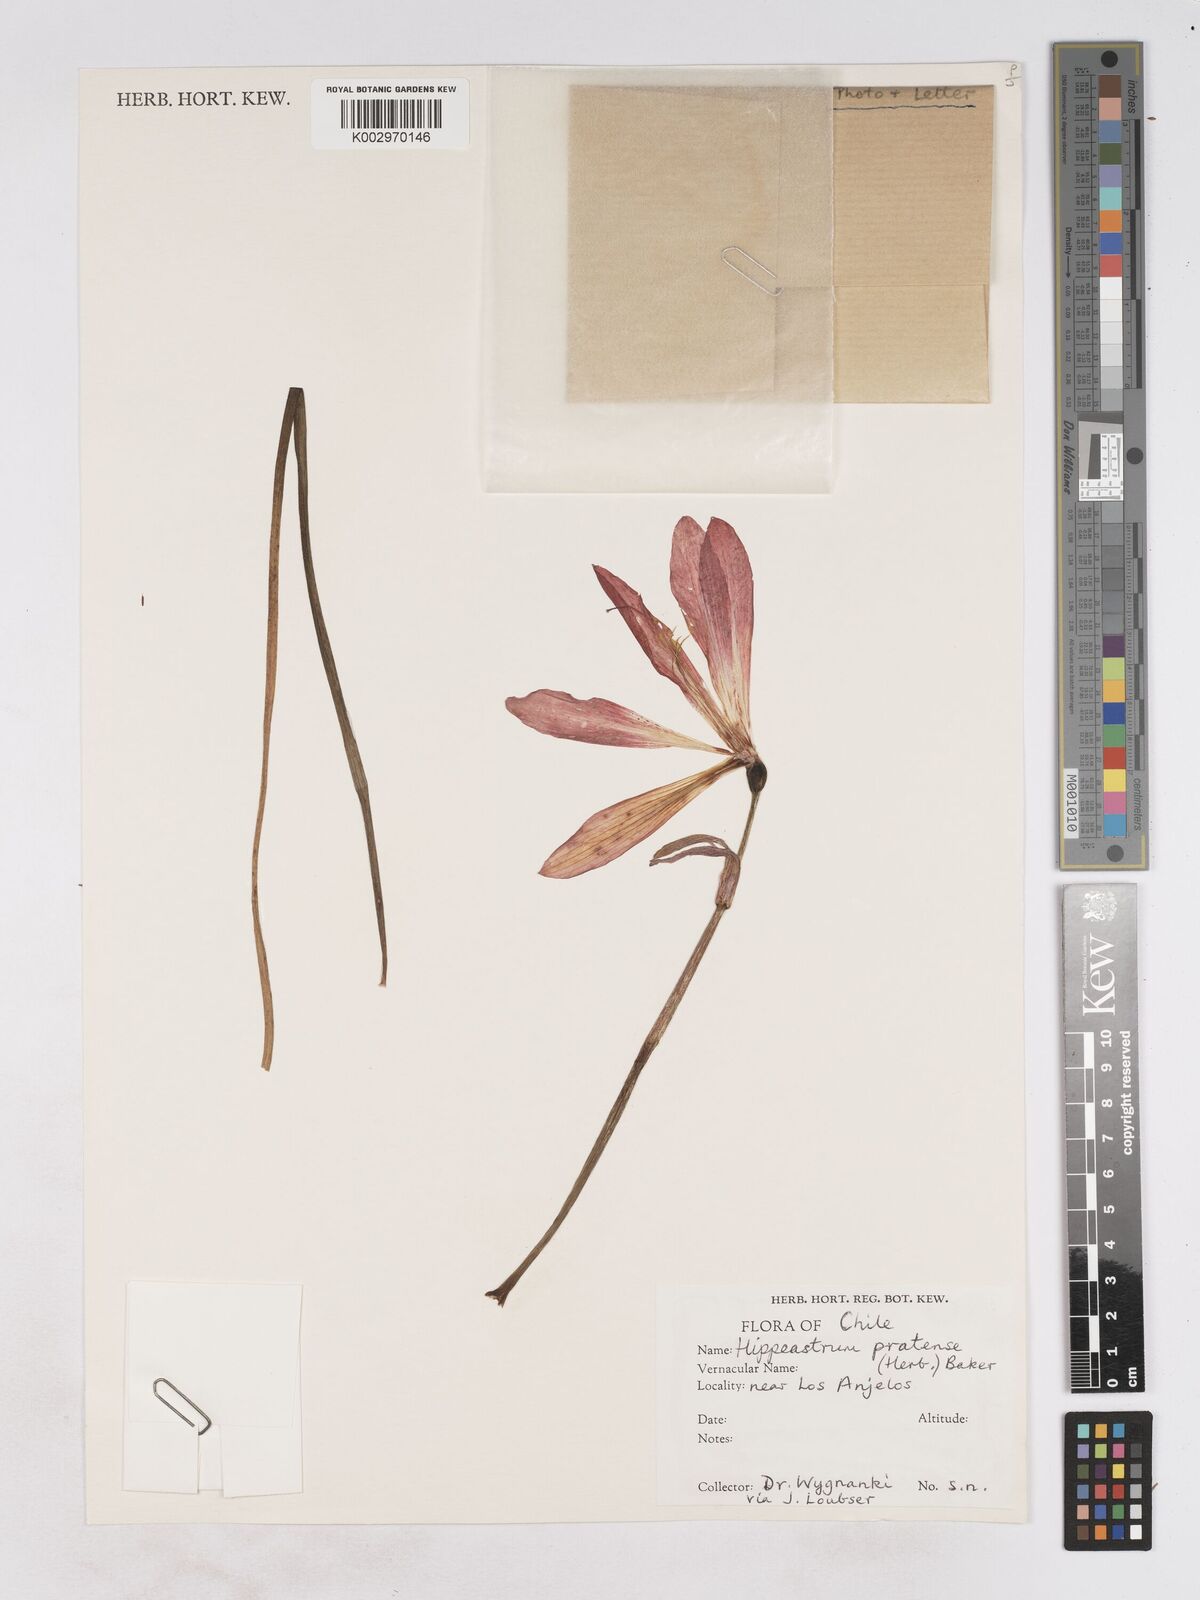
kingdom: Plantae
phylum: Tracheophyta
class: Liliopsida
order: Asparagales
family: Amaryllidaceae
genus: Phycella
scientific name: Phycella chilensis
